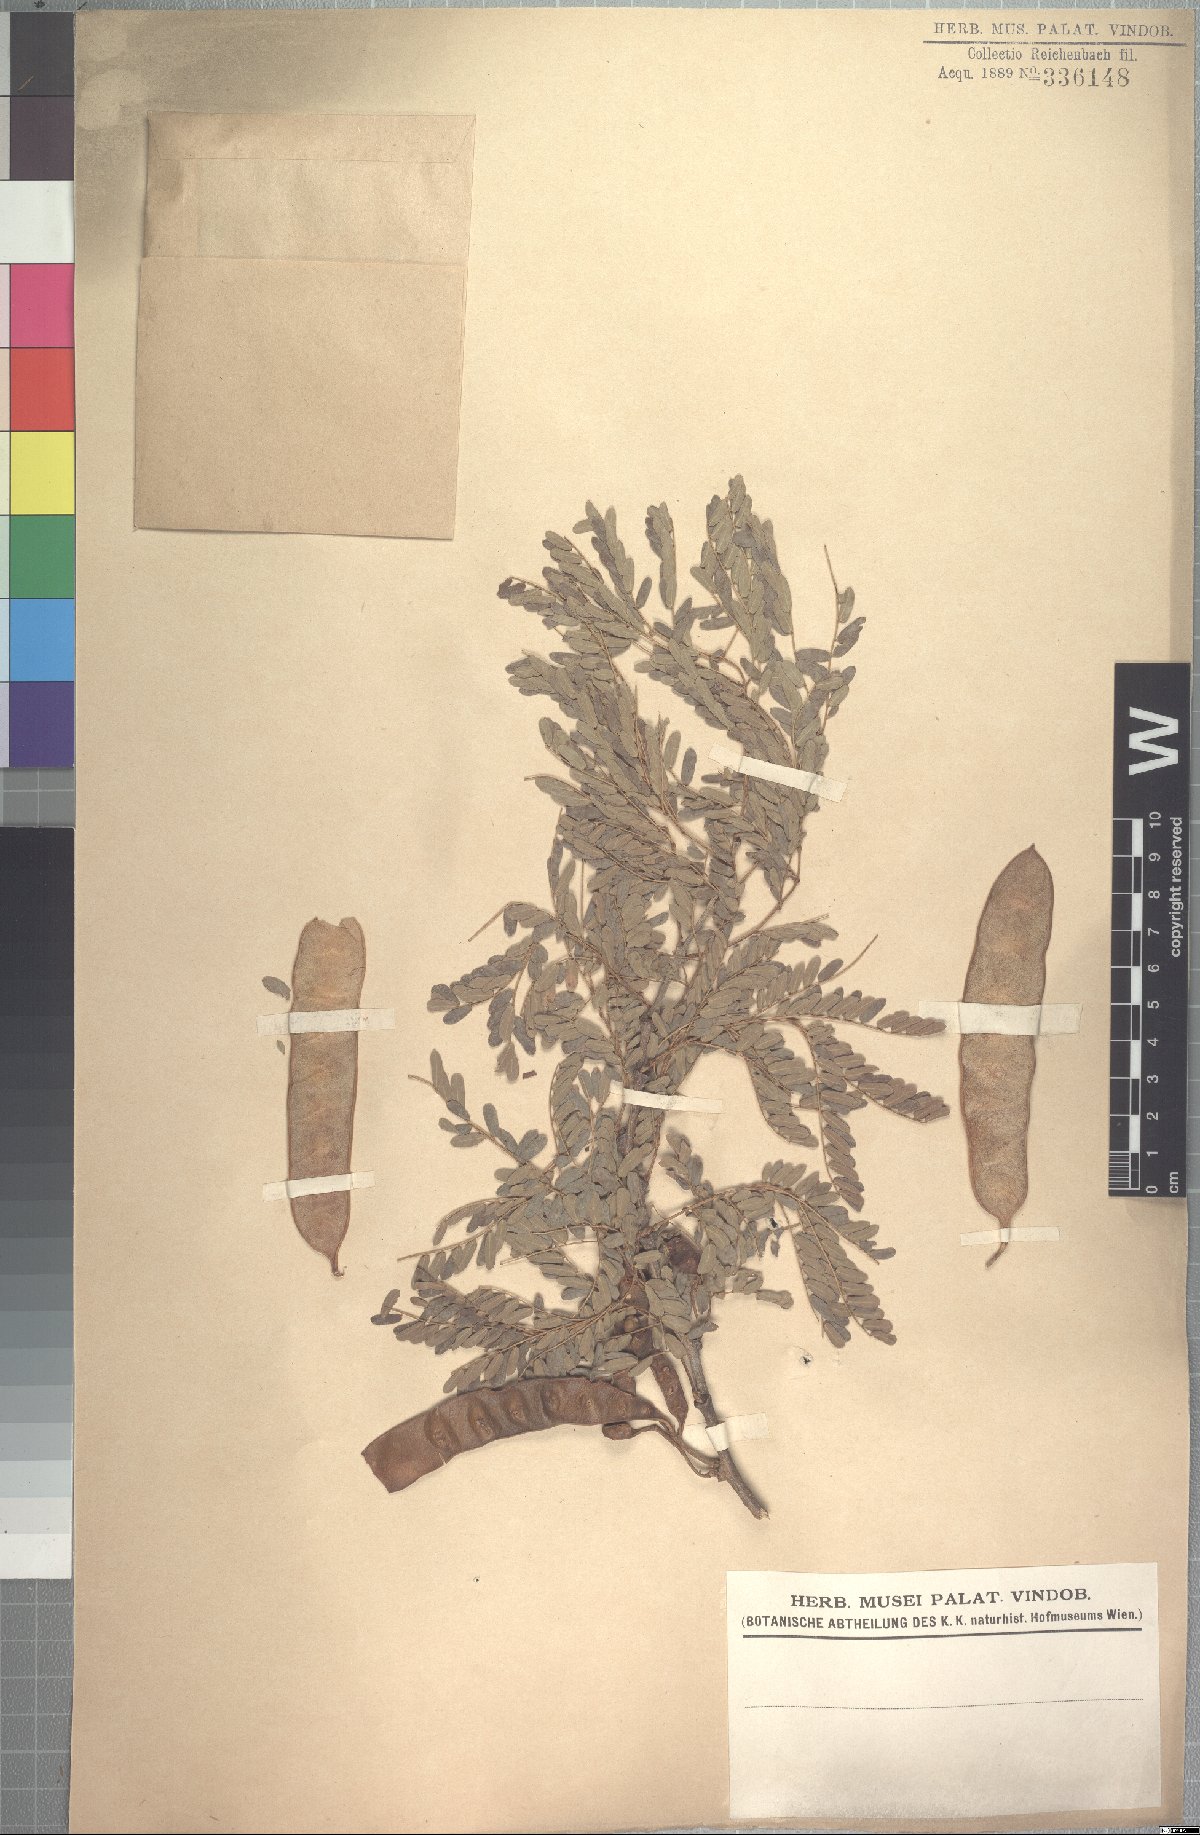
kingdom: Plantae
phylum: Tracheophyta
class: Magnoliopsida
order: Fabales
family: Fabaceae
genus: Senegalia
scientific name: Senegalia venosa
